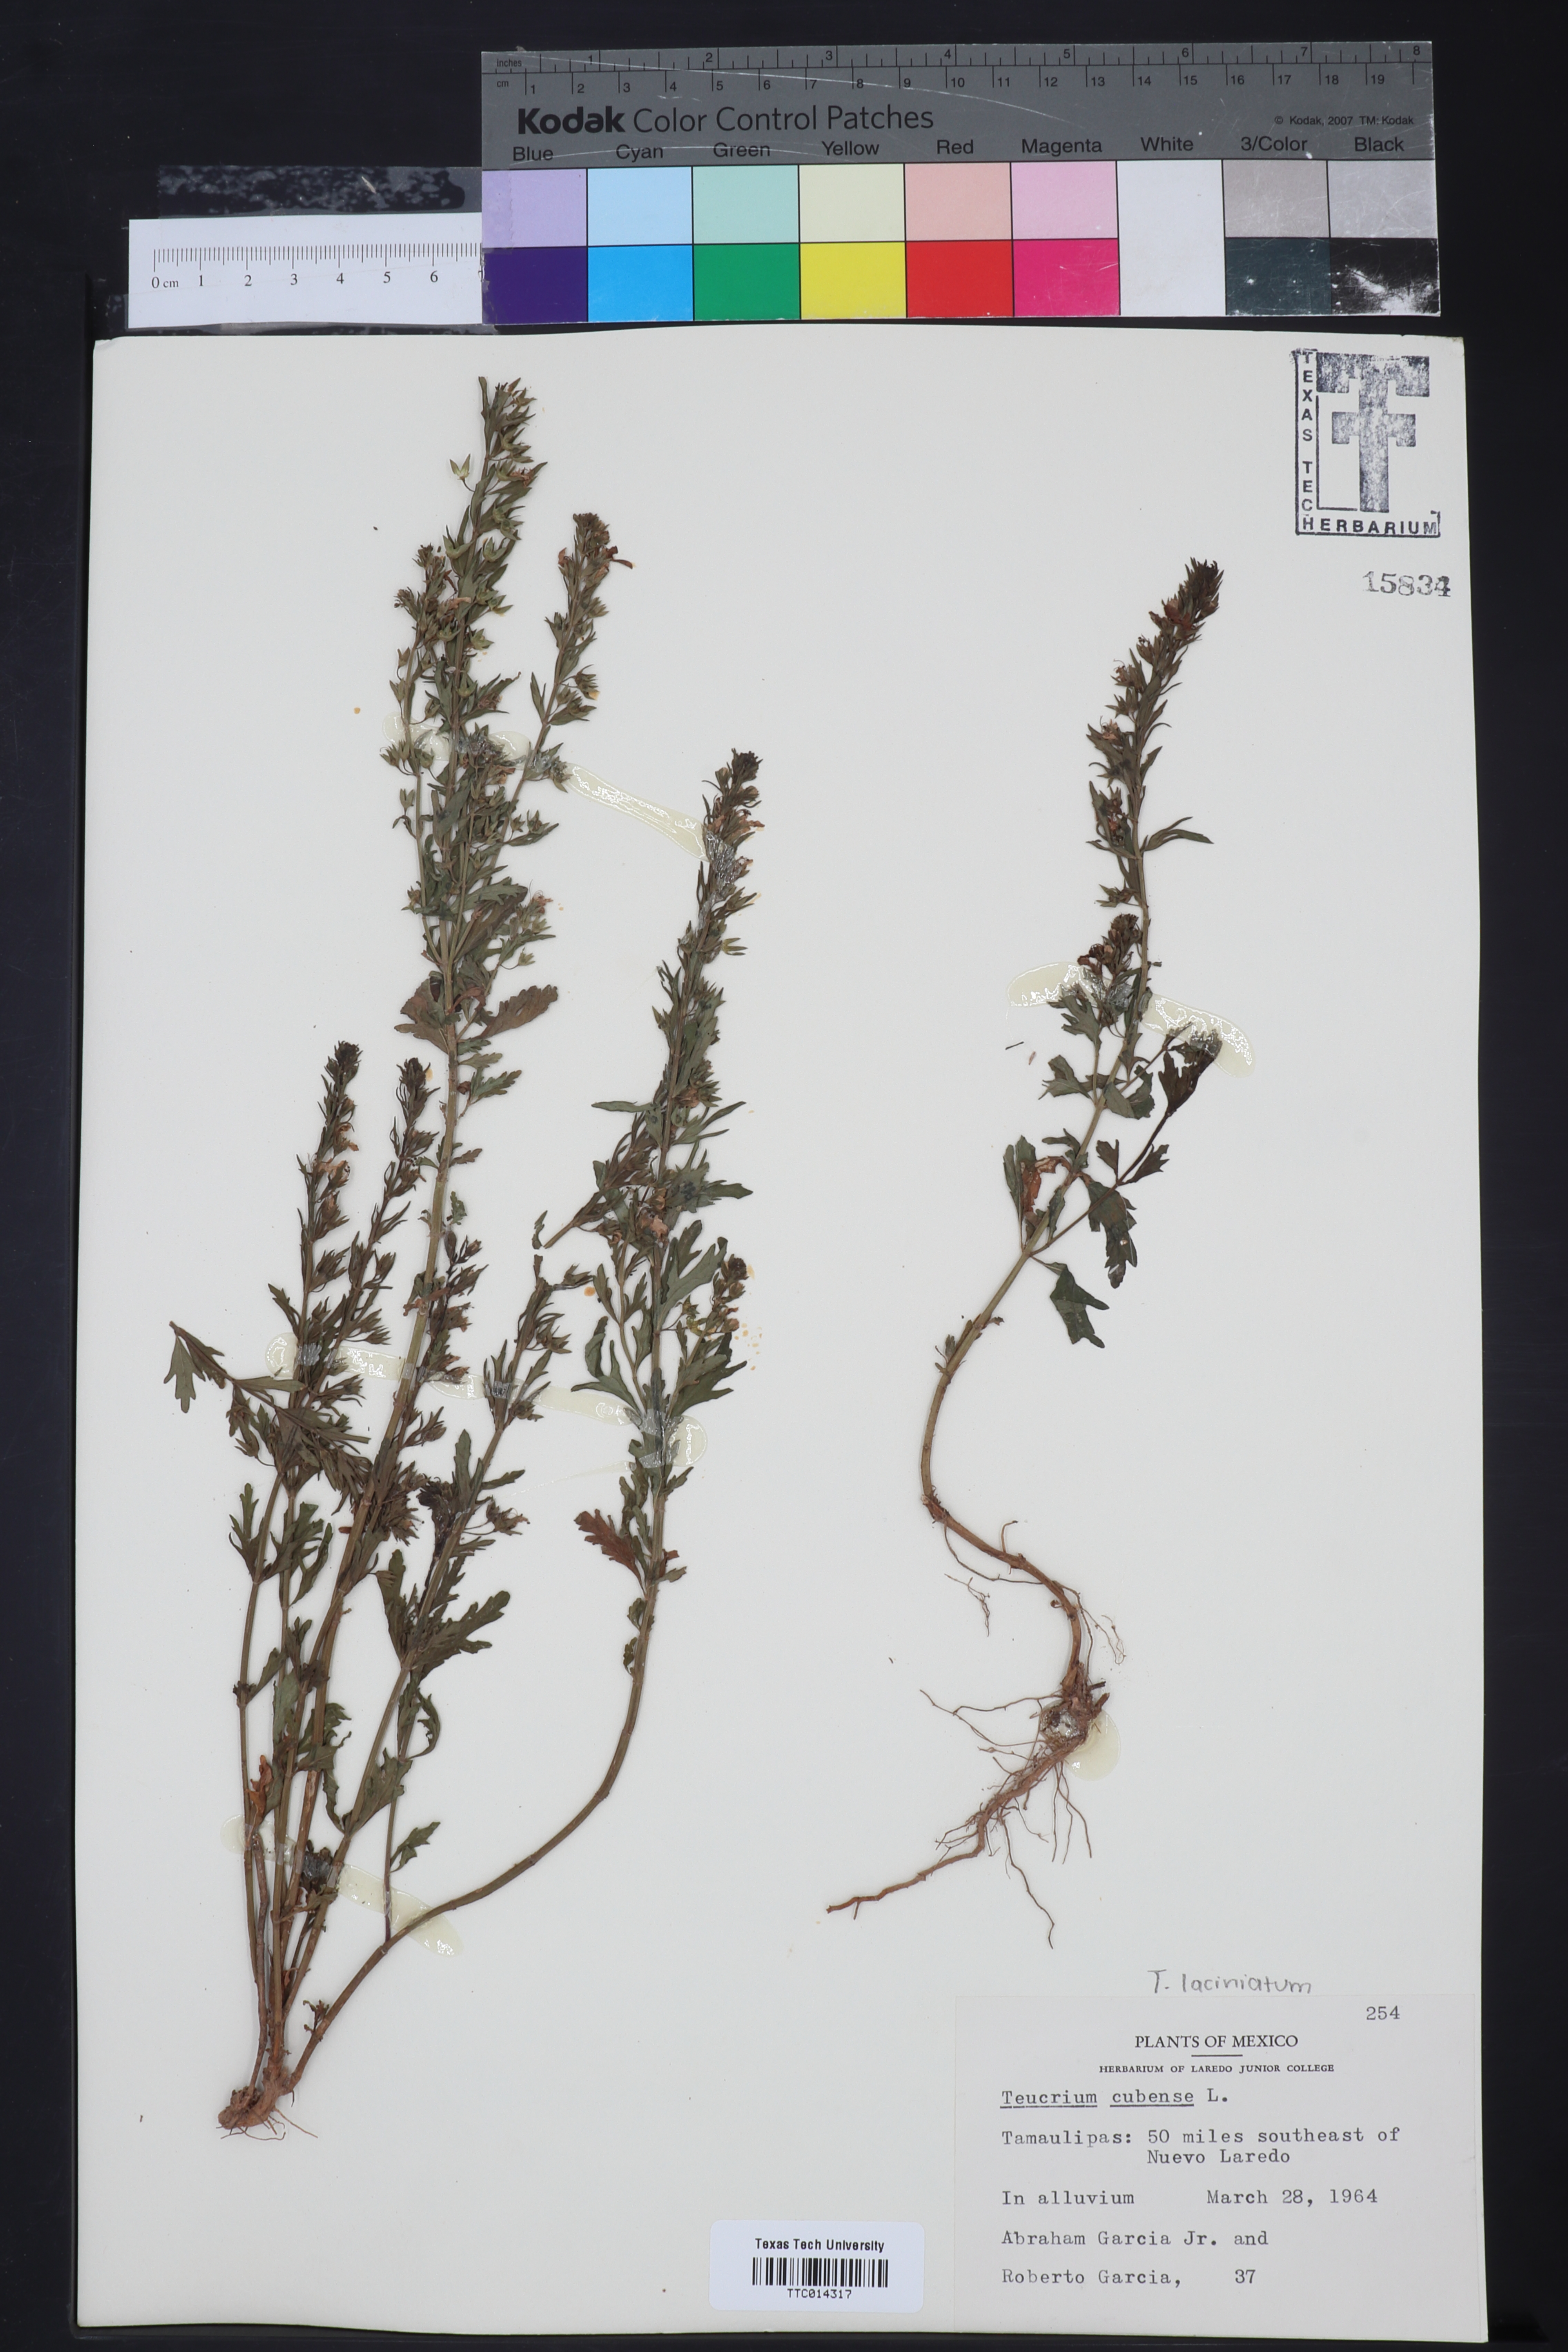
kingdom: Plantae
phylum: Tracheophyta
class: Magnoliopsida
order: Lamiales
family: Lamiaceae
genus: Teucrium
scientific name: Teucrium cubense
